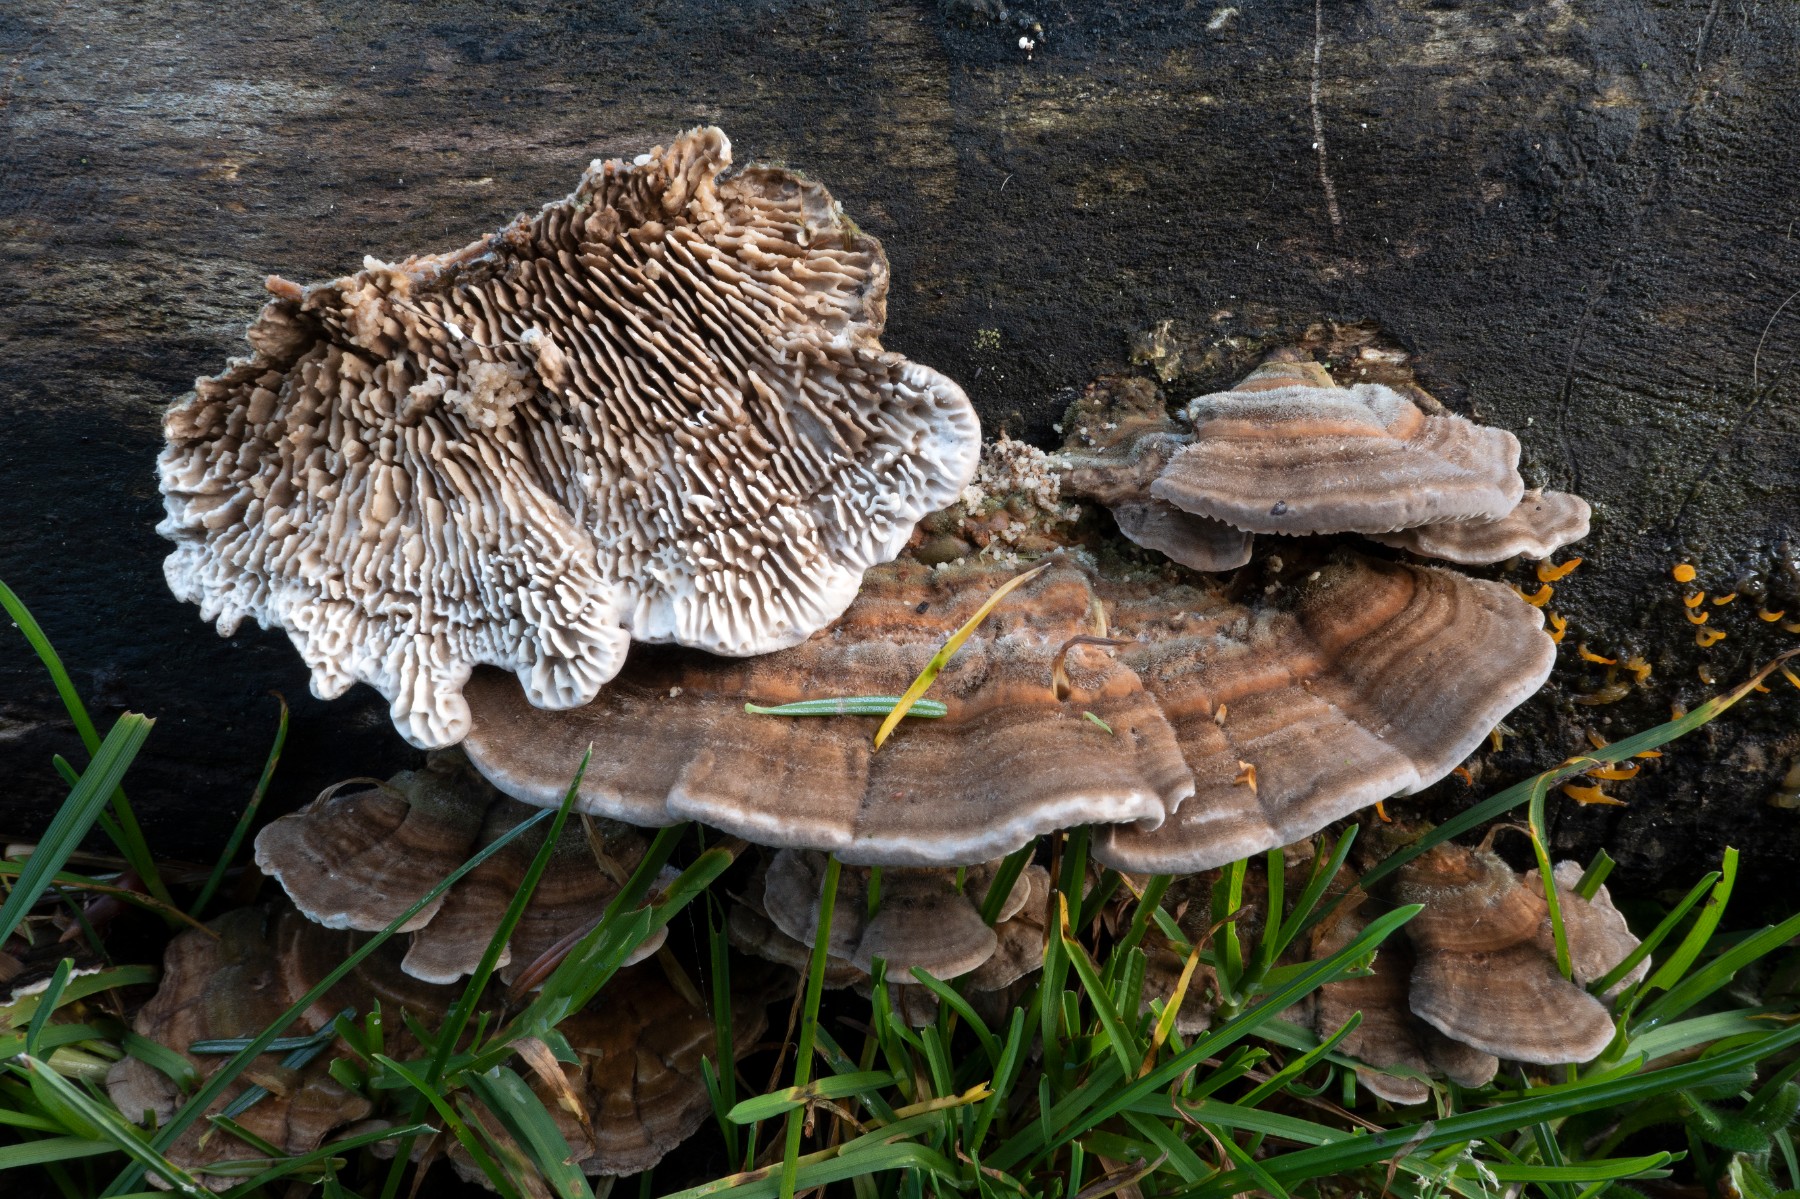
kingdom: Fungi
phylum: Basidiomycota
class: Agaricomycetes
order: Polyporales
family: Polyporaceae
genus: Lenzites
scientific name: Lenzites betulinus
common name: birke-læderporesvamp
